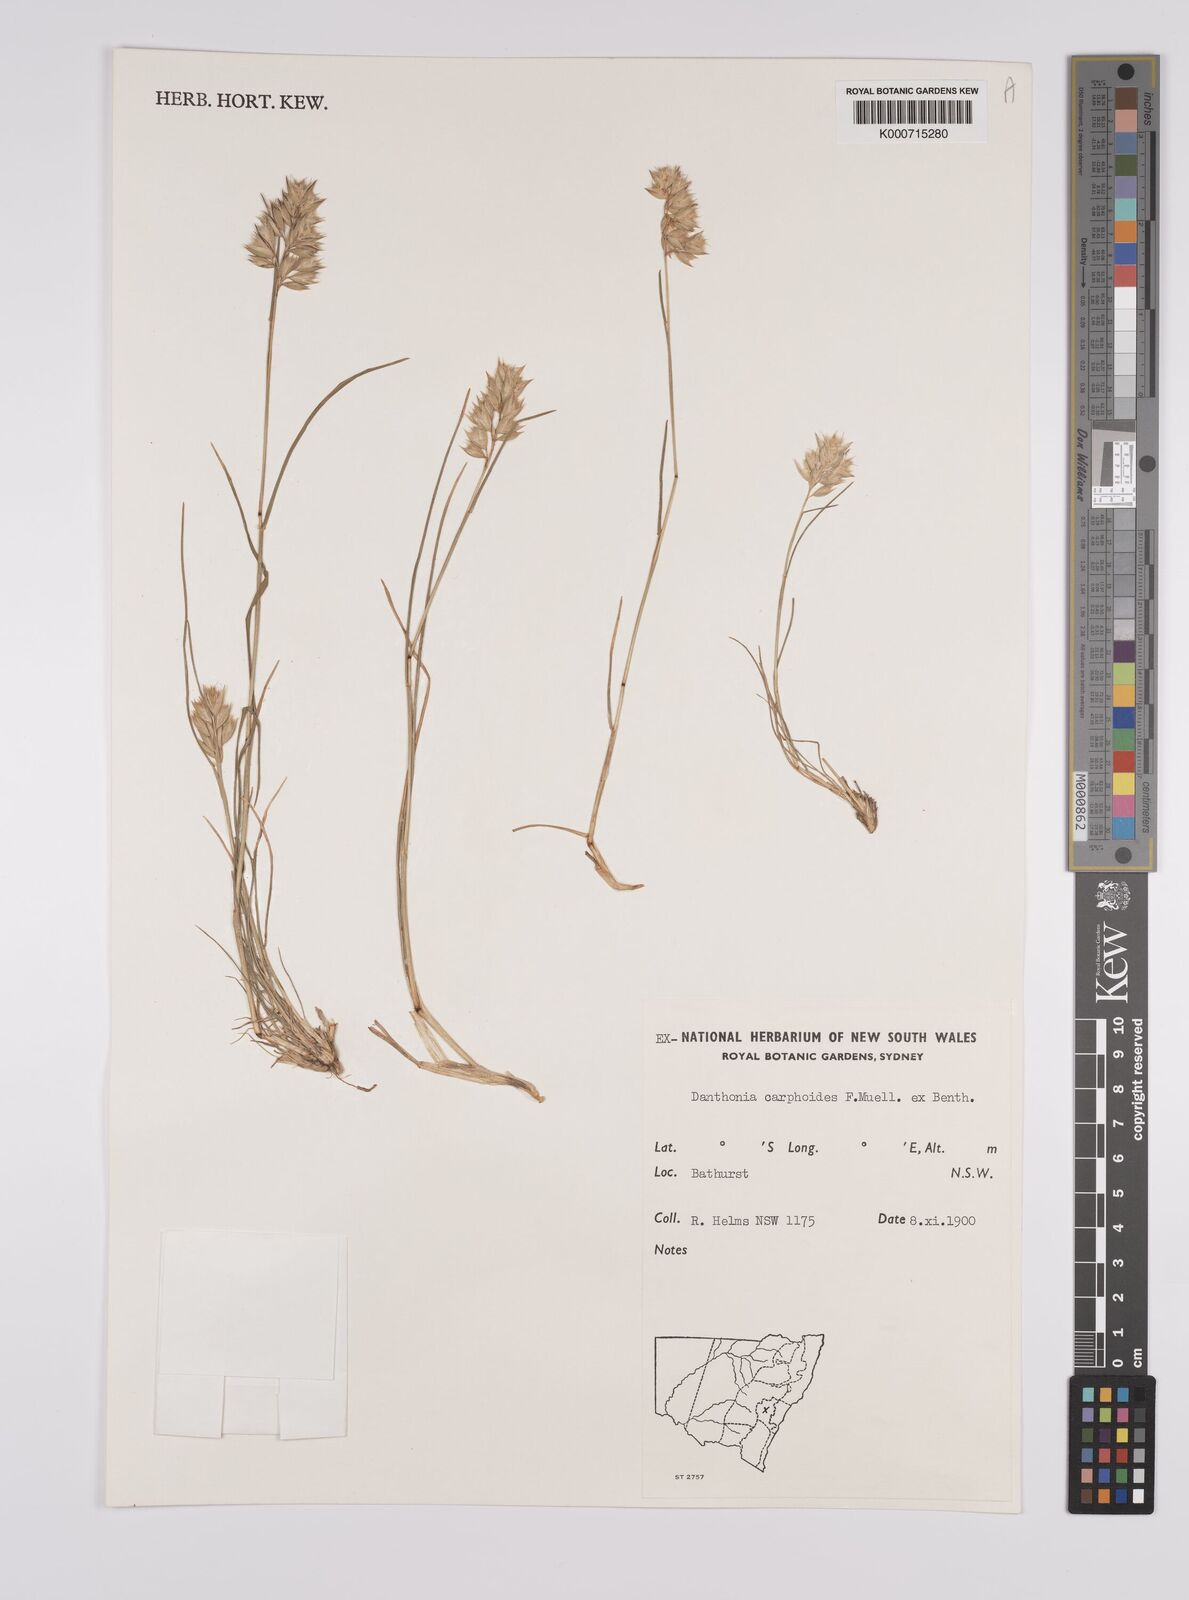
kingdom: Plantae
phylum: Tracheophyta
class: Liliopsida
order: Poales
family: Poaceae
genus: Rytidosperma
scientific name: Rytidosperma carphoides
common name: Short wallaby grass
